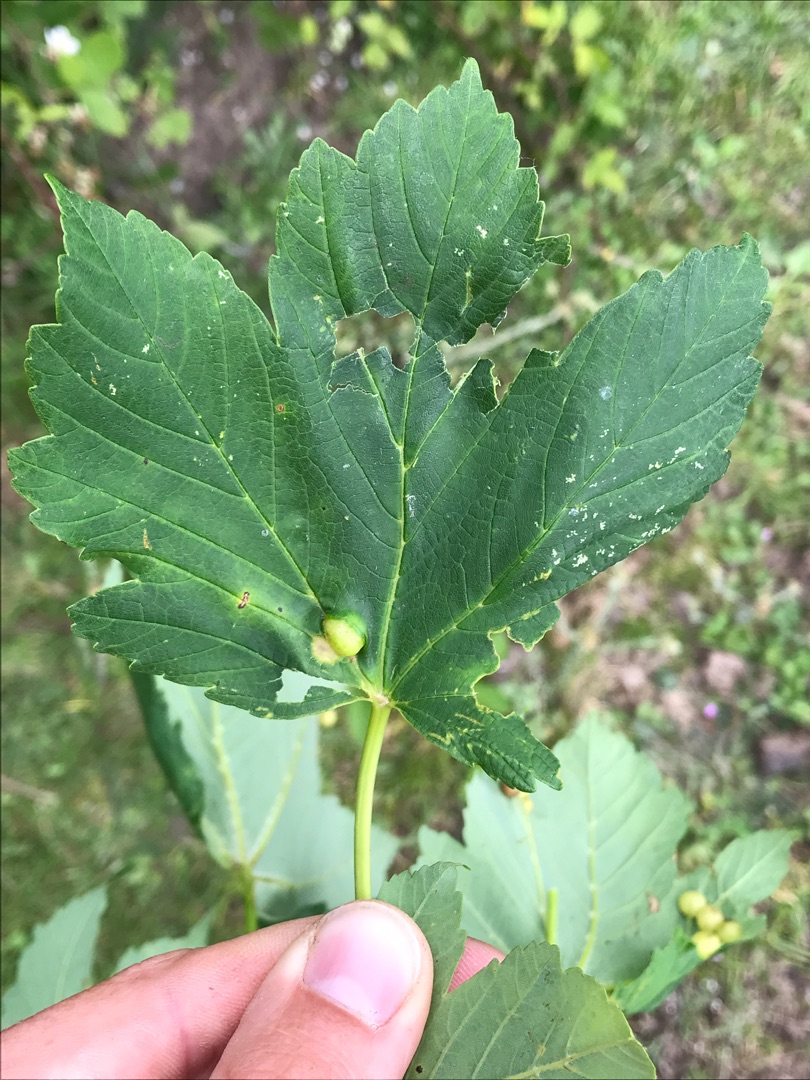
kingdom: Animalia
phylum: Arthropoda
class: Insecta
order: Hymenoptera
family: Cynipidae
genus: Pediaspis
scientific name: Pediaspis aceris
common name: Ahorngalhveps
